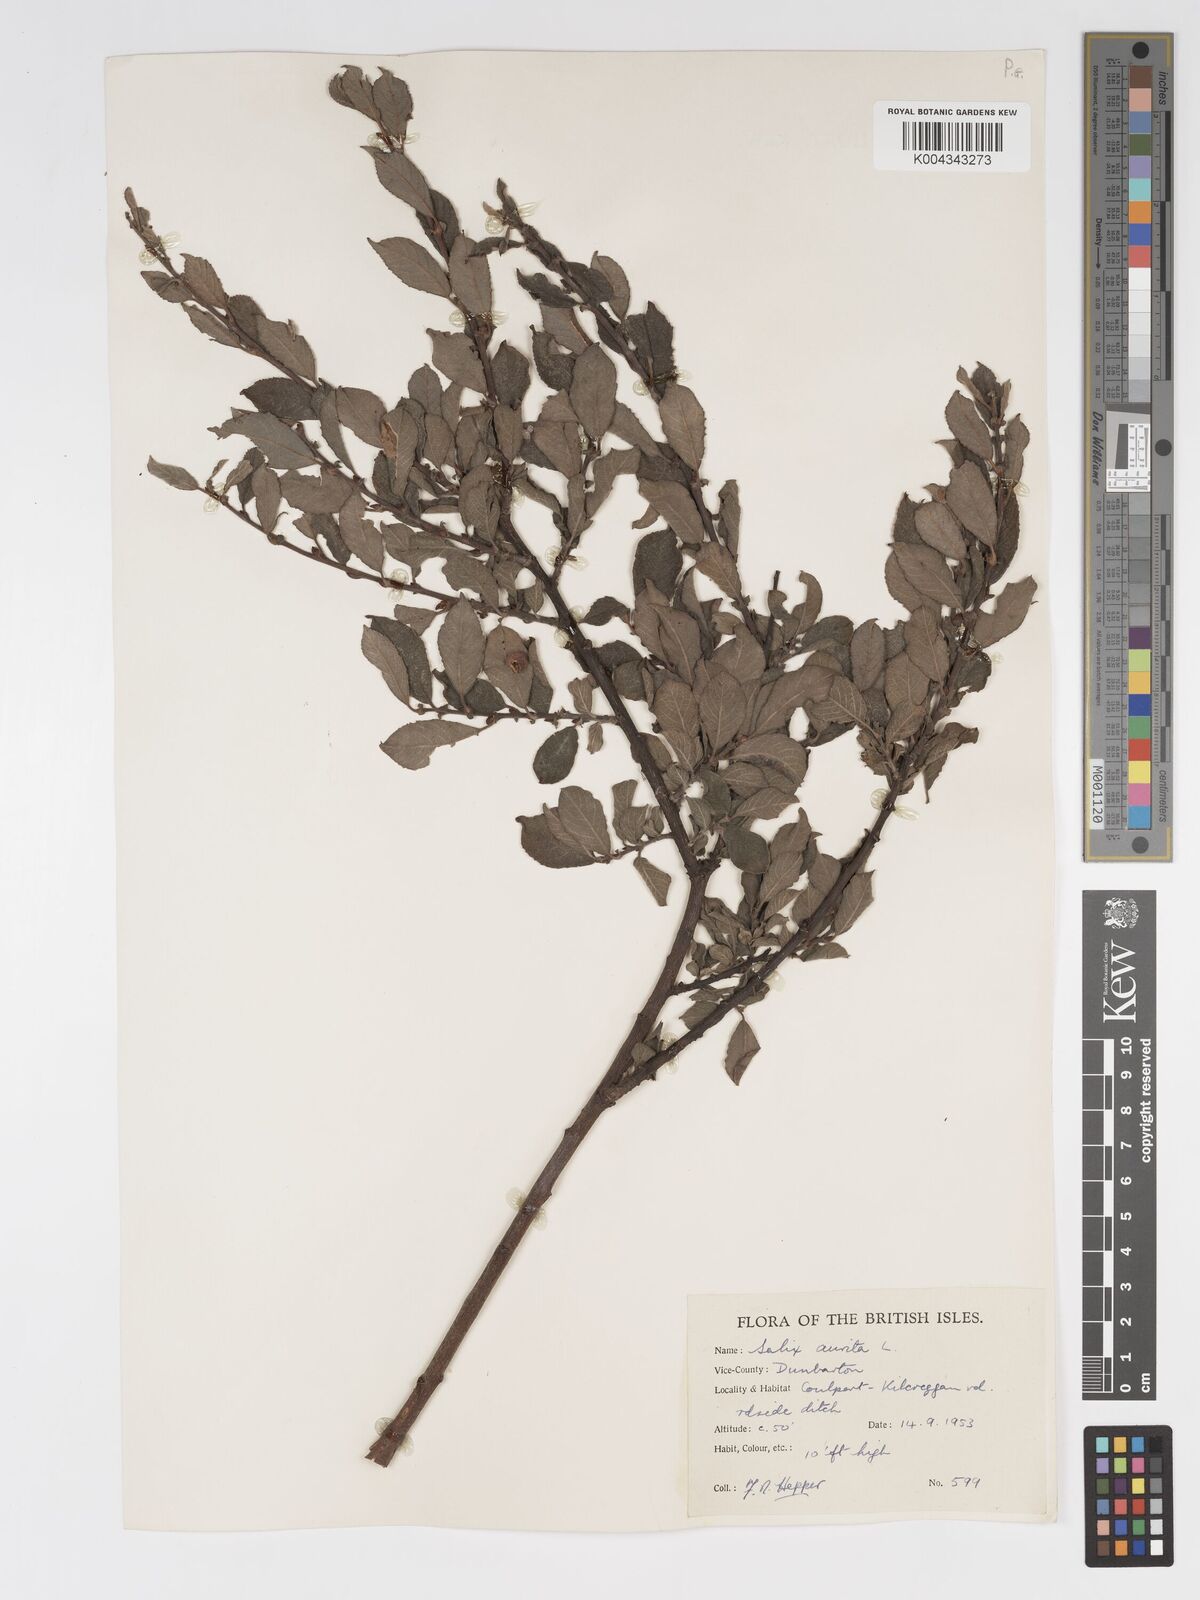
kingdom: Plantae
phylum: Tracheophyta
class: Magnoliopsida
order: Malpighiales
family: Salicaceae
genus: Salix
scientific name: Salix aurita
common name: Eared willow
